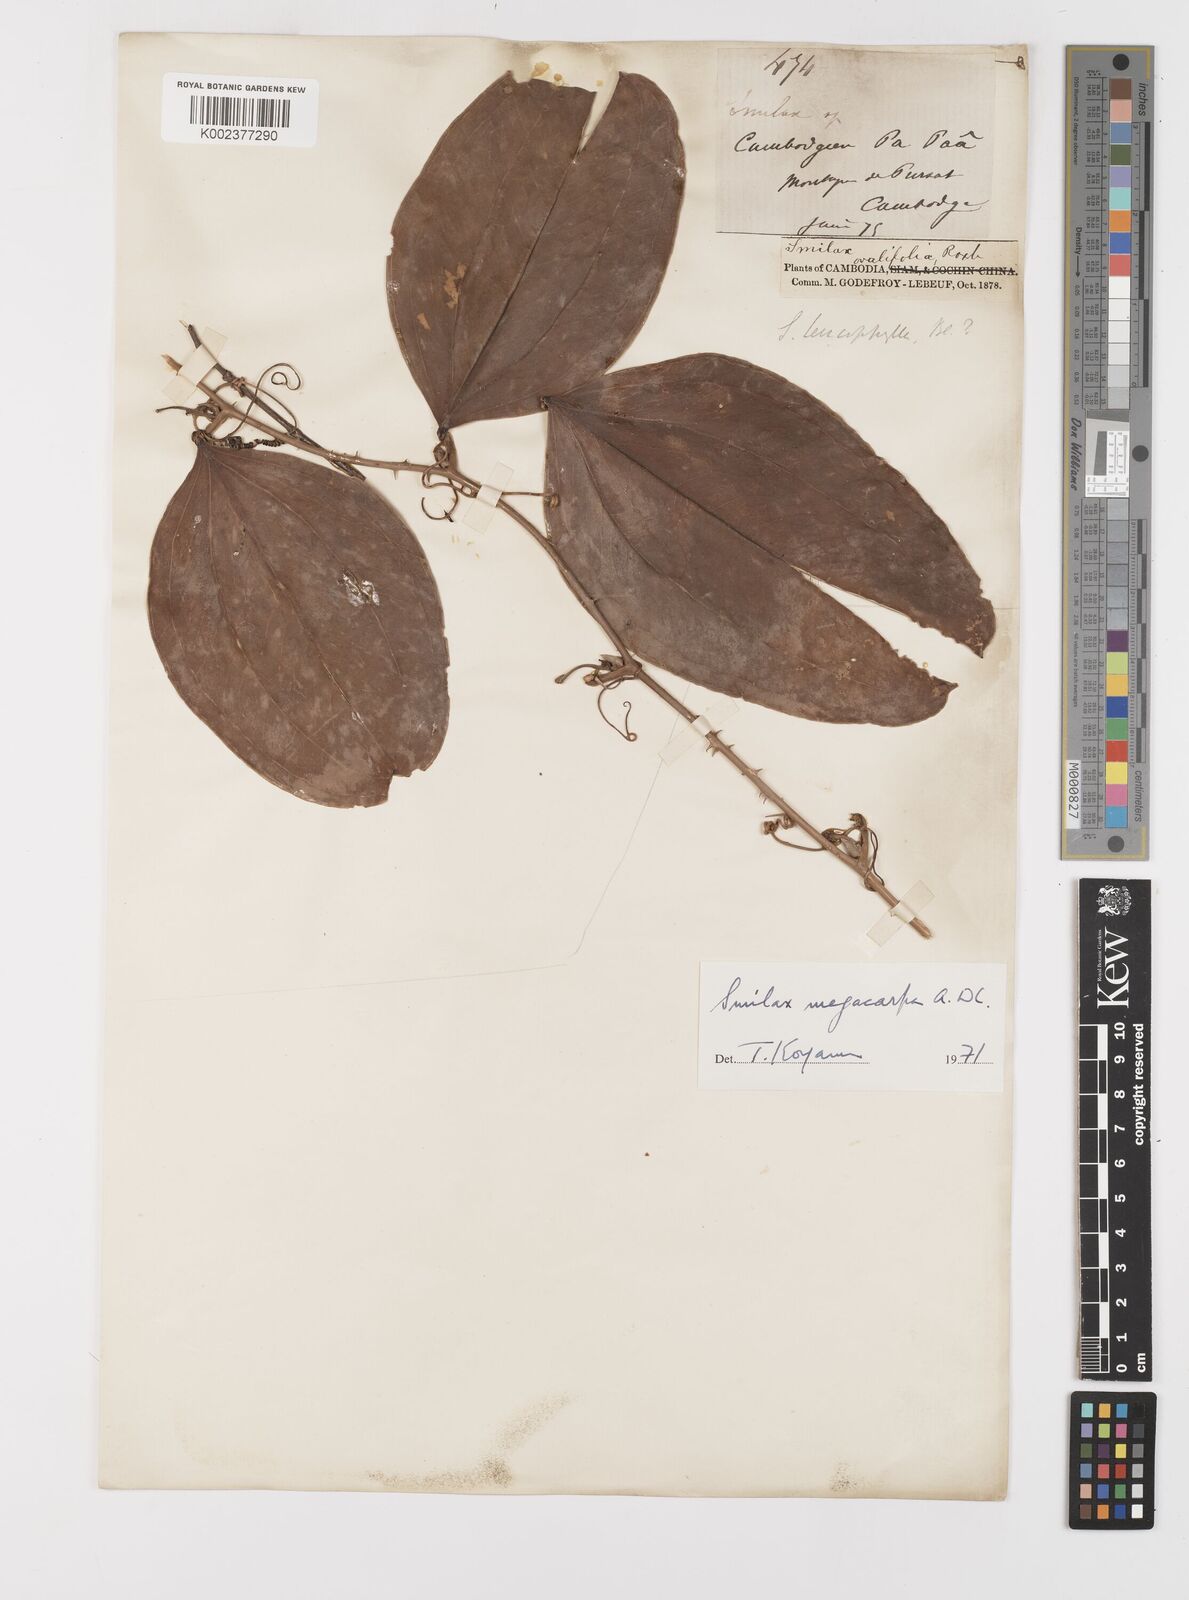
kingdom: Plantae
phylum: Tracheophyta
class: Liliopsida
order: Liliales
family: Smilacaceae
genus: Smilax
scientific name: Smilax megacarpa
